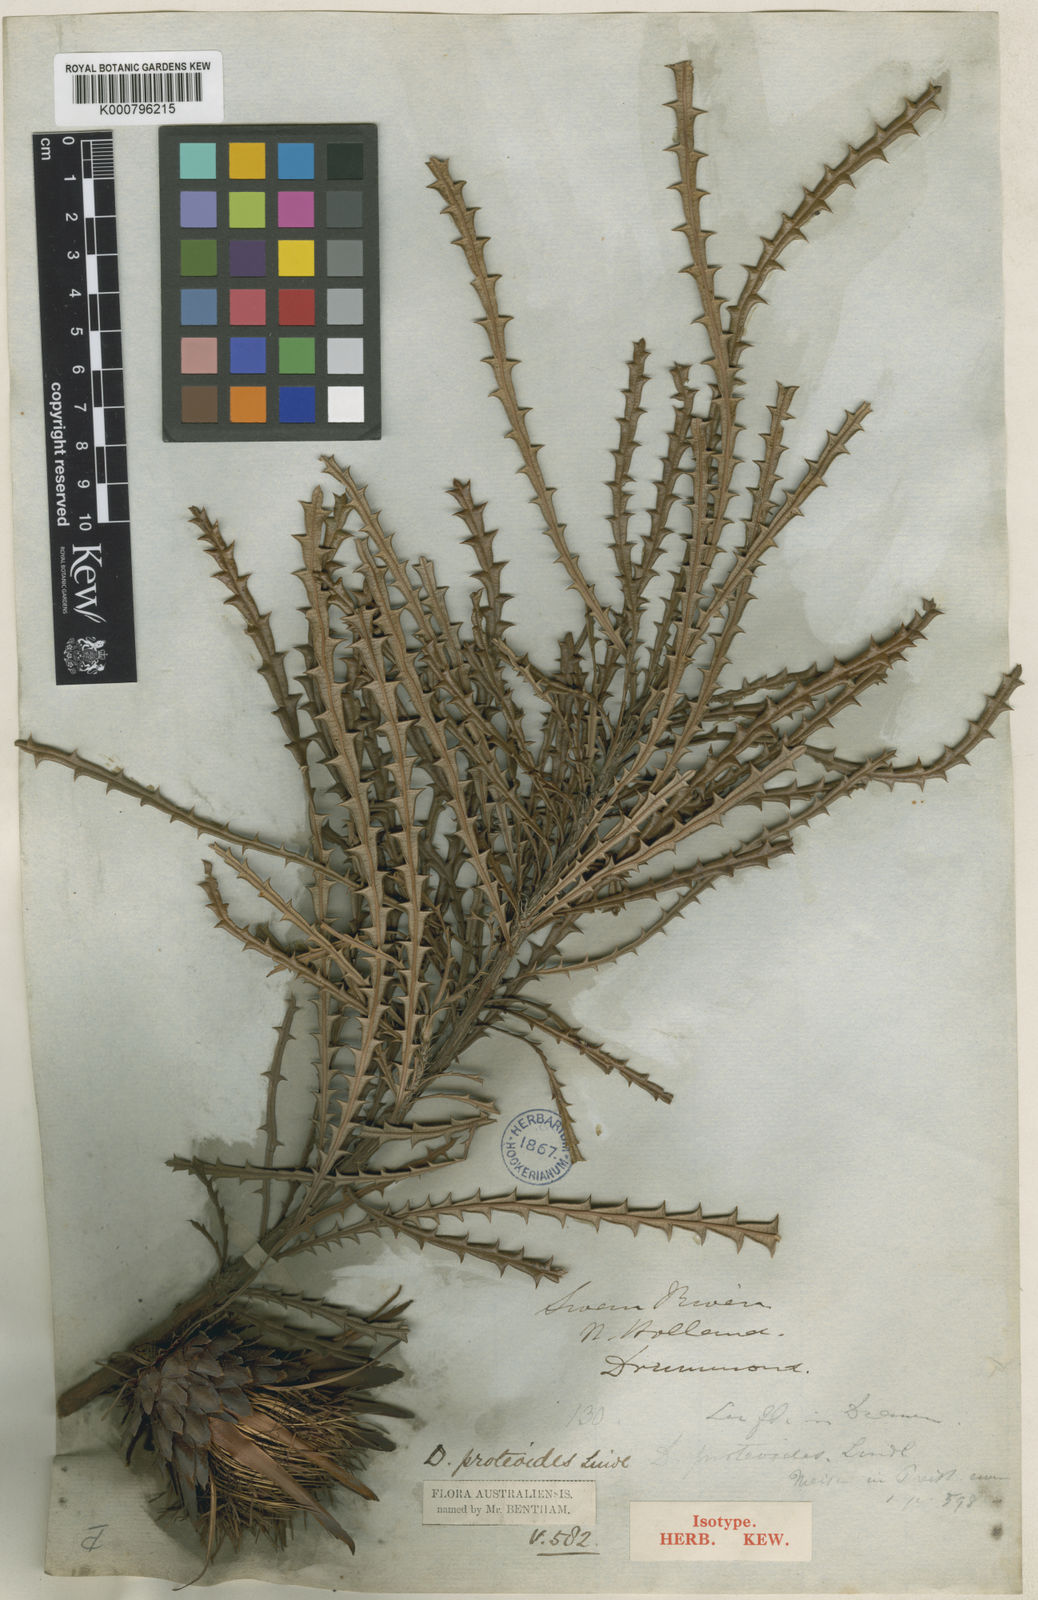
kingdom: Plantae
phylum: Tracheophyta
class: Magnoliopsida
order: Proteales
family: Proteaceae
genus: Banksia
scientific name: Banksia proteoides
